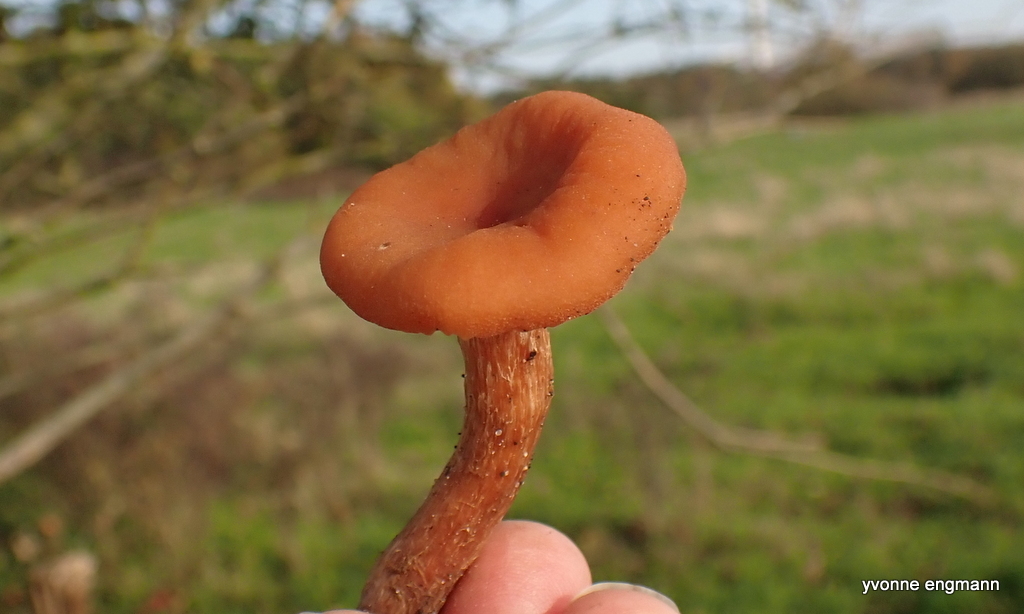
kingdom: Fungi
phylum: Basidiomycota
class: Agaricomycetes
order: Agaricales
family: Hydnangiaceae
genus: Laccaria
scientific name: Laccaria proxima
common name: stor ametysthat
